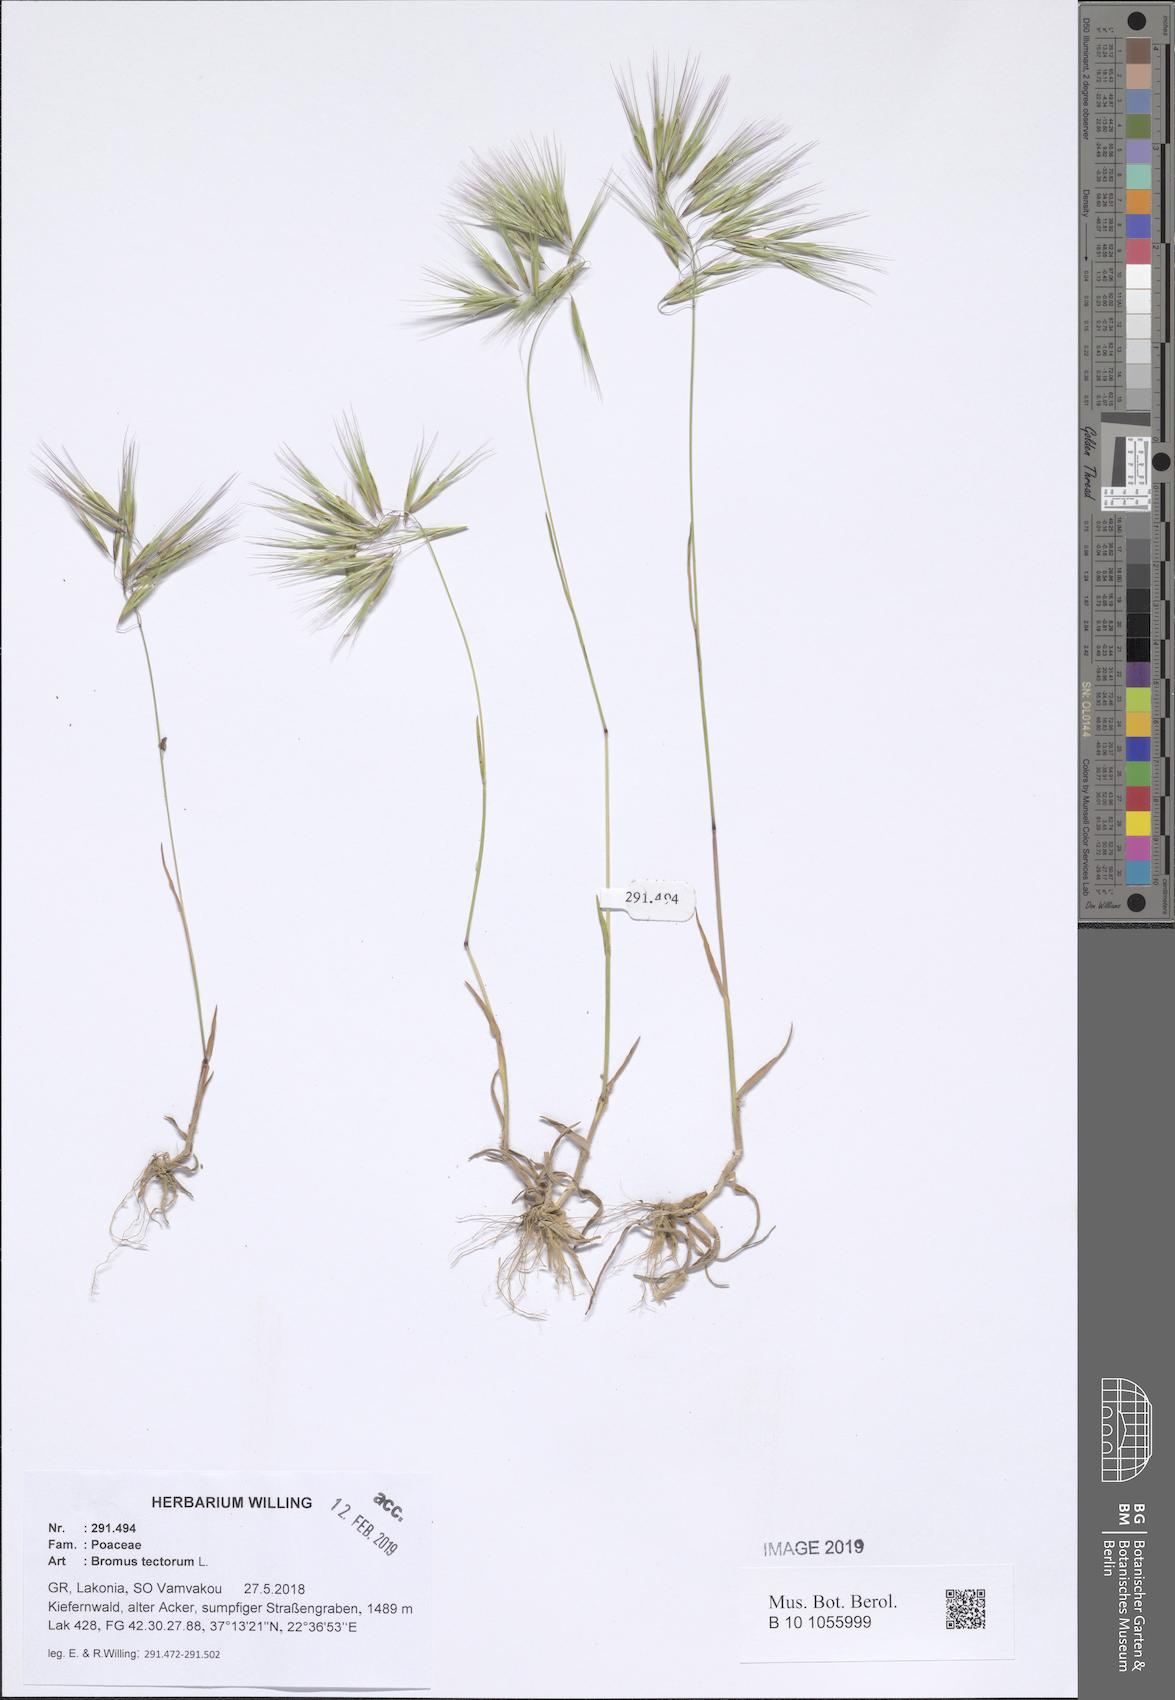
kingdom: Plantae
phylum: Tracheophyta
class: Liliopsida
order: Poales
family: Poaceae
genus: Bromus
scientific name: Bromus tectorum
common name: Cheatgrass
